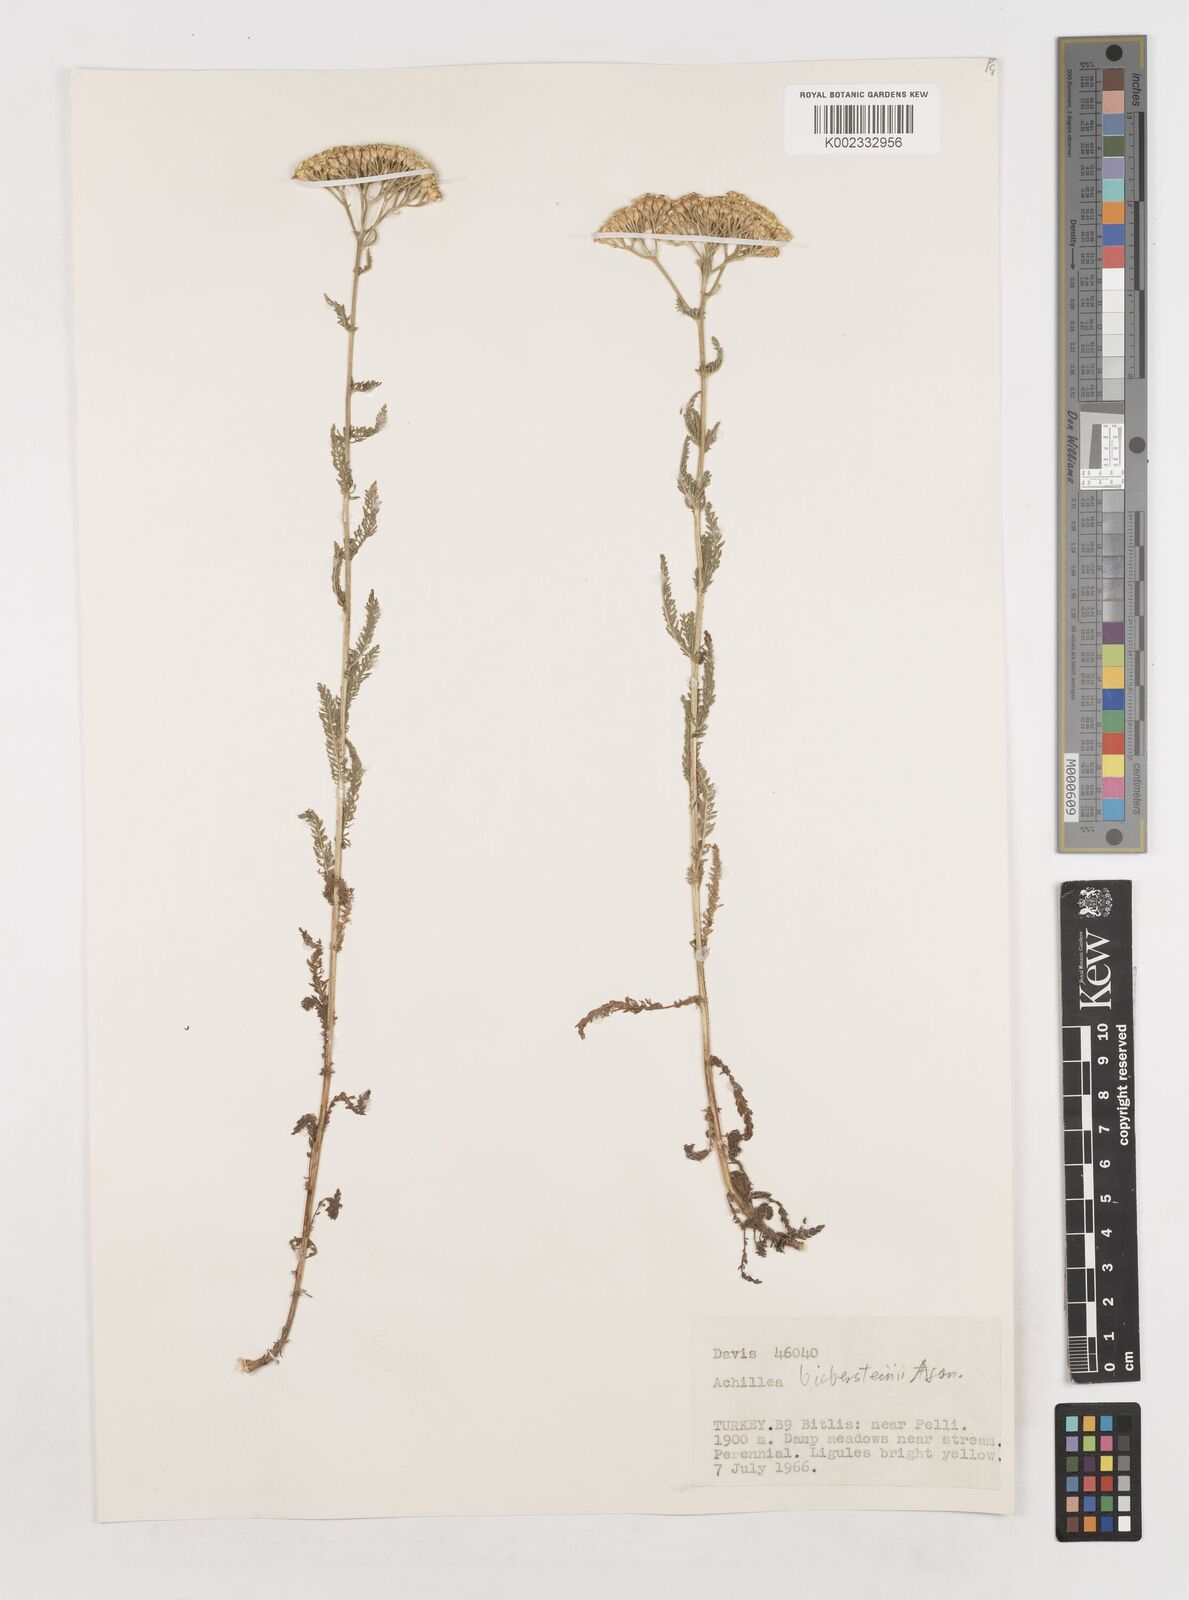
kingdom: Plantae
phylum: Tracheophyta
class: Magnoliopsida
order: Asterales
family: Asteraceae
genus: Achillea
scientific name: Achillea arabica
